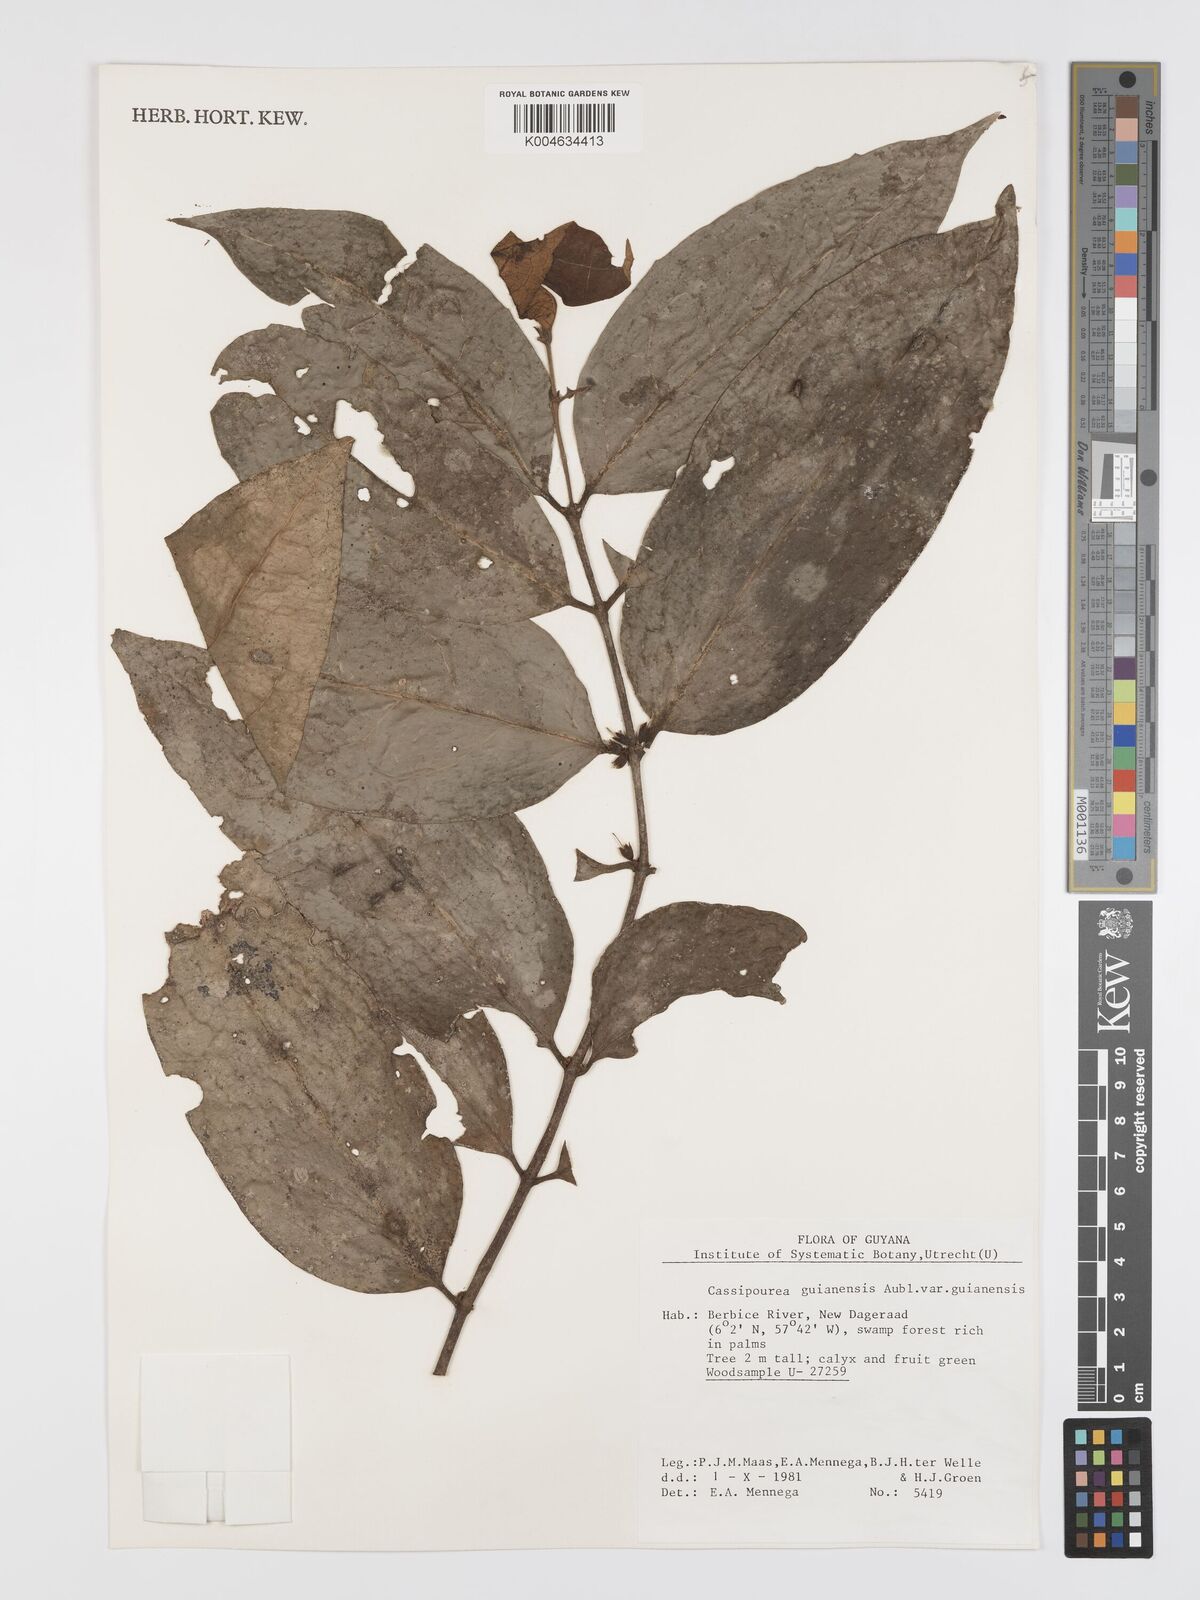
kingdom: Plantae
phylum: Tracheophyta
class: Magnoliopsida
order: Malpighiales
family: Rhizophoraceae
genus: Cassipourea
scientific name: Cassipourea guianensis
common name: Bastard waterwood
